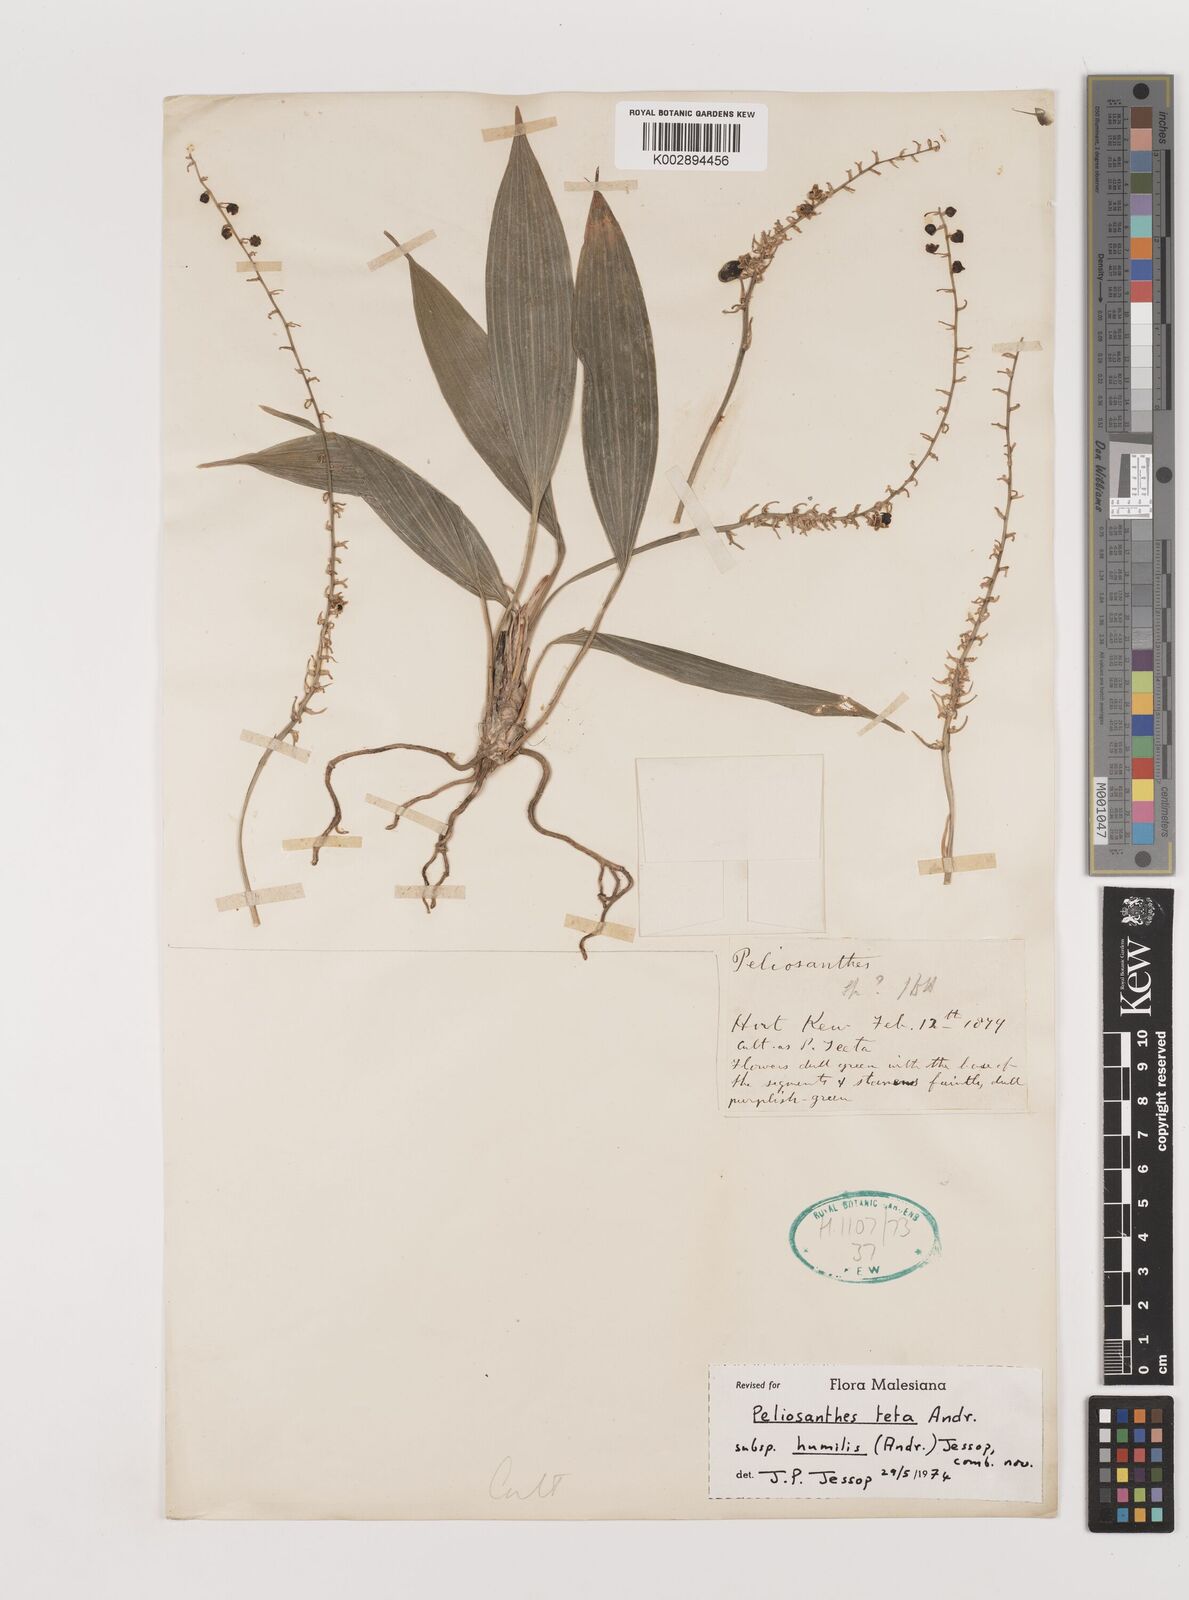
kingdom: Plantae
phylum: Tracheophyta
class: Liliopsida
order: Asparagales
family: Asparagaceae
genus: Peliosanthes
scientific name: Peliosanthes teta
